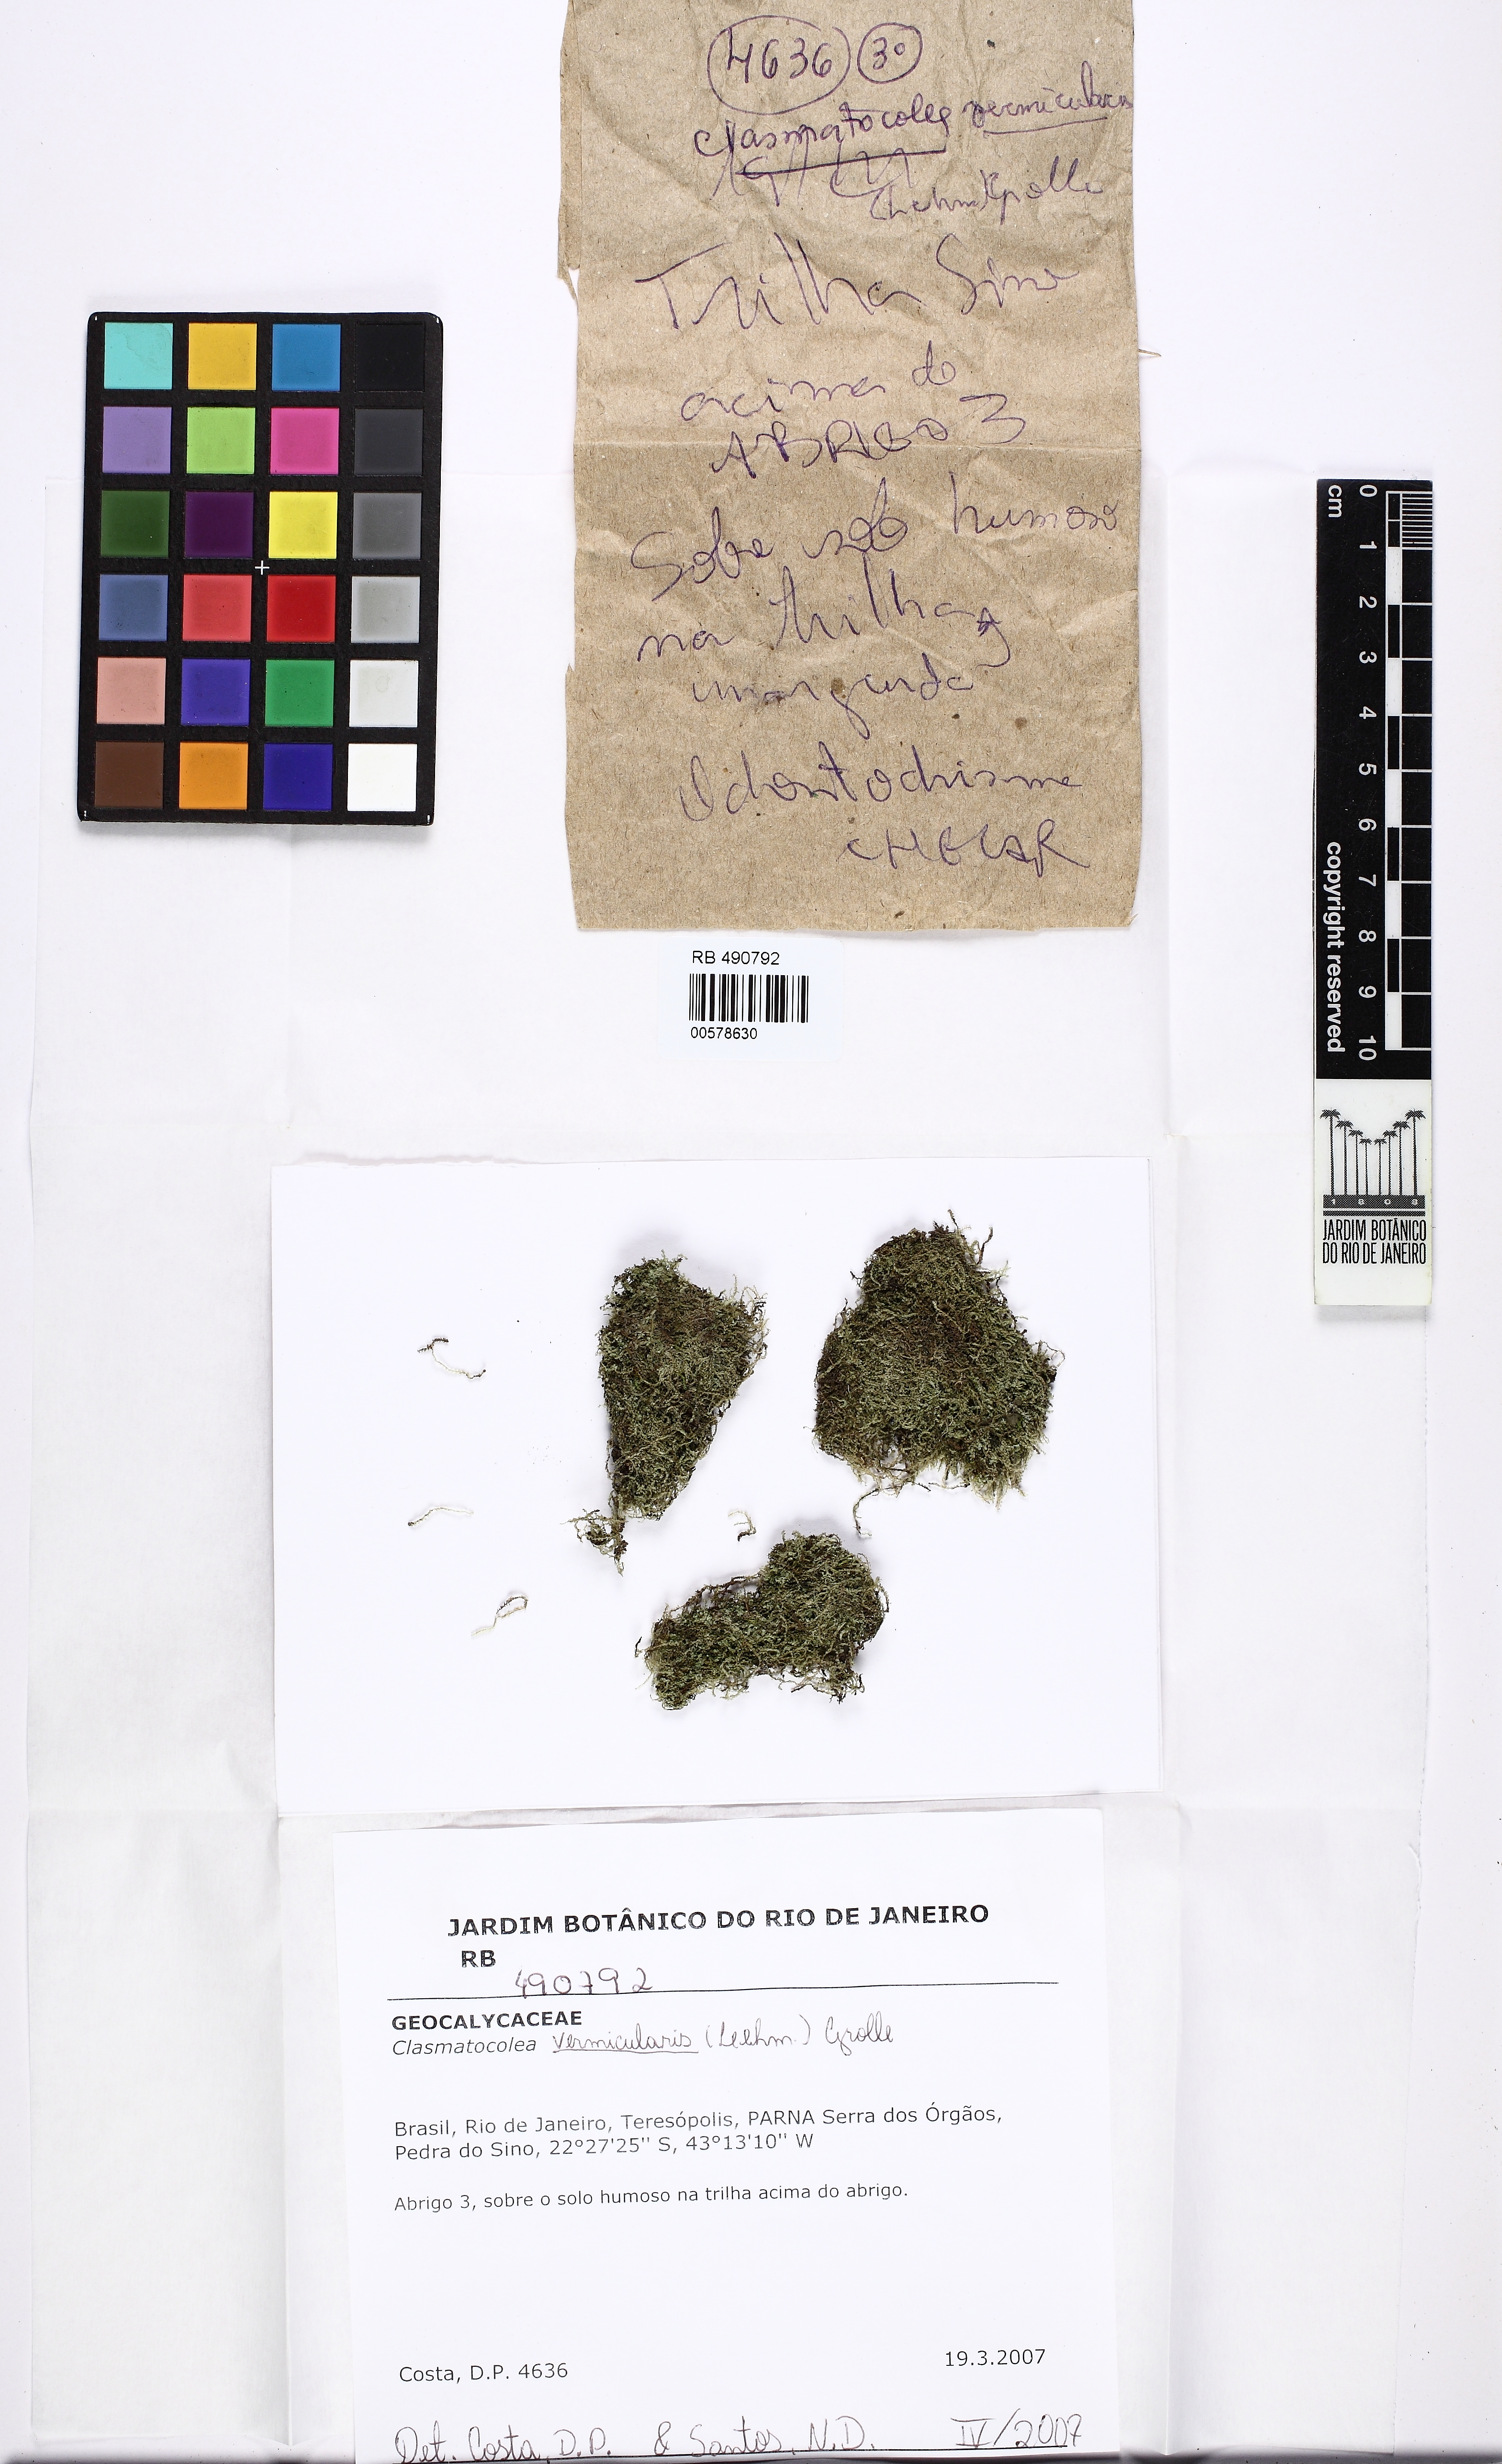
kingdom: Plantae
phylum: Marchantiophyta
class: Jungermanniopsida
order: Jungermanniales
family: Lophocoleaceae
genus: Clasmatocolea
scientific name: Clasmatocolea vermicularis
